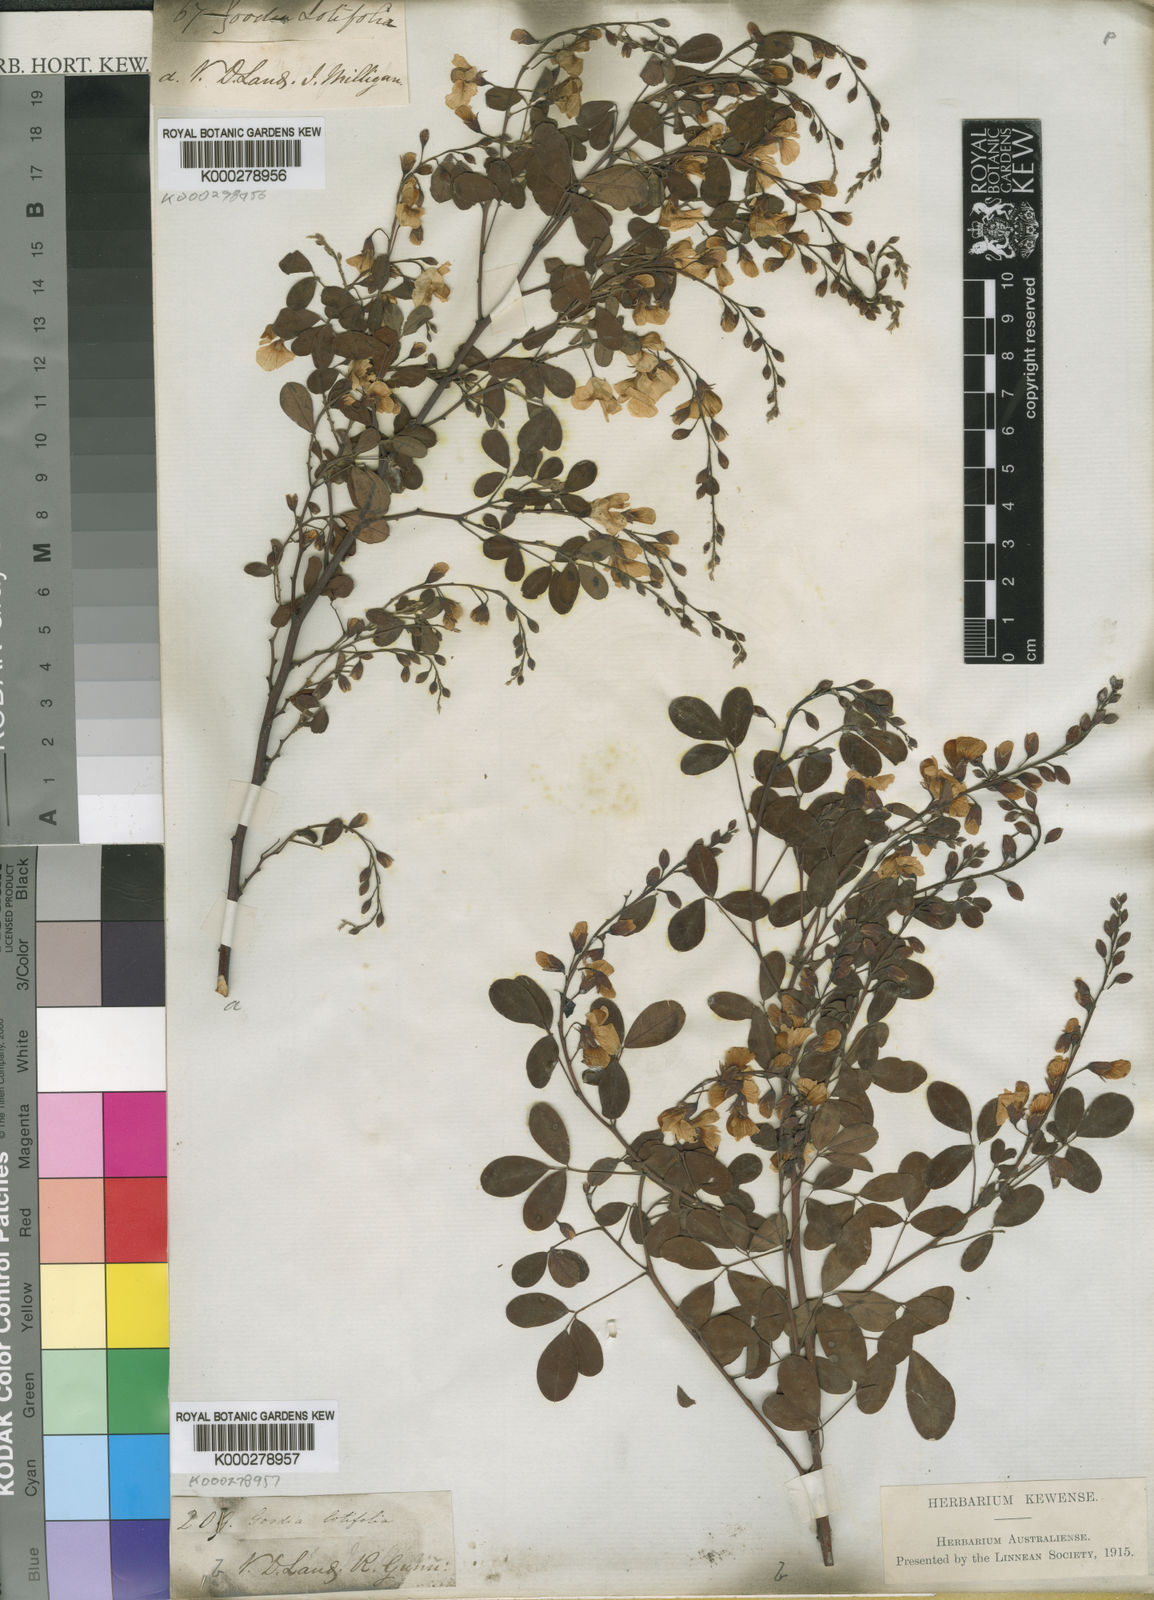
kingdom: Plantae
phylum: Tracheophyta
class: Magnoliopsida
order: Fabales
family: Fabaceae
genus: Goodia
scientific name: Goodia lotifolia
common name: Cloverleaf-poison
